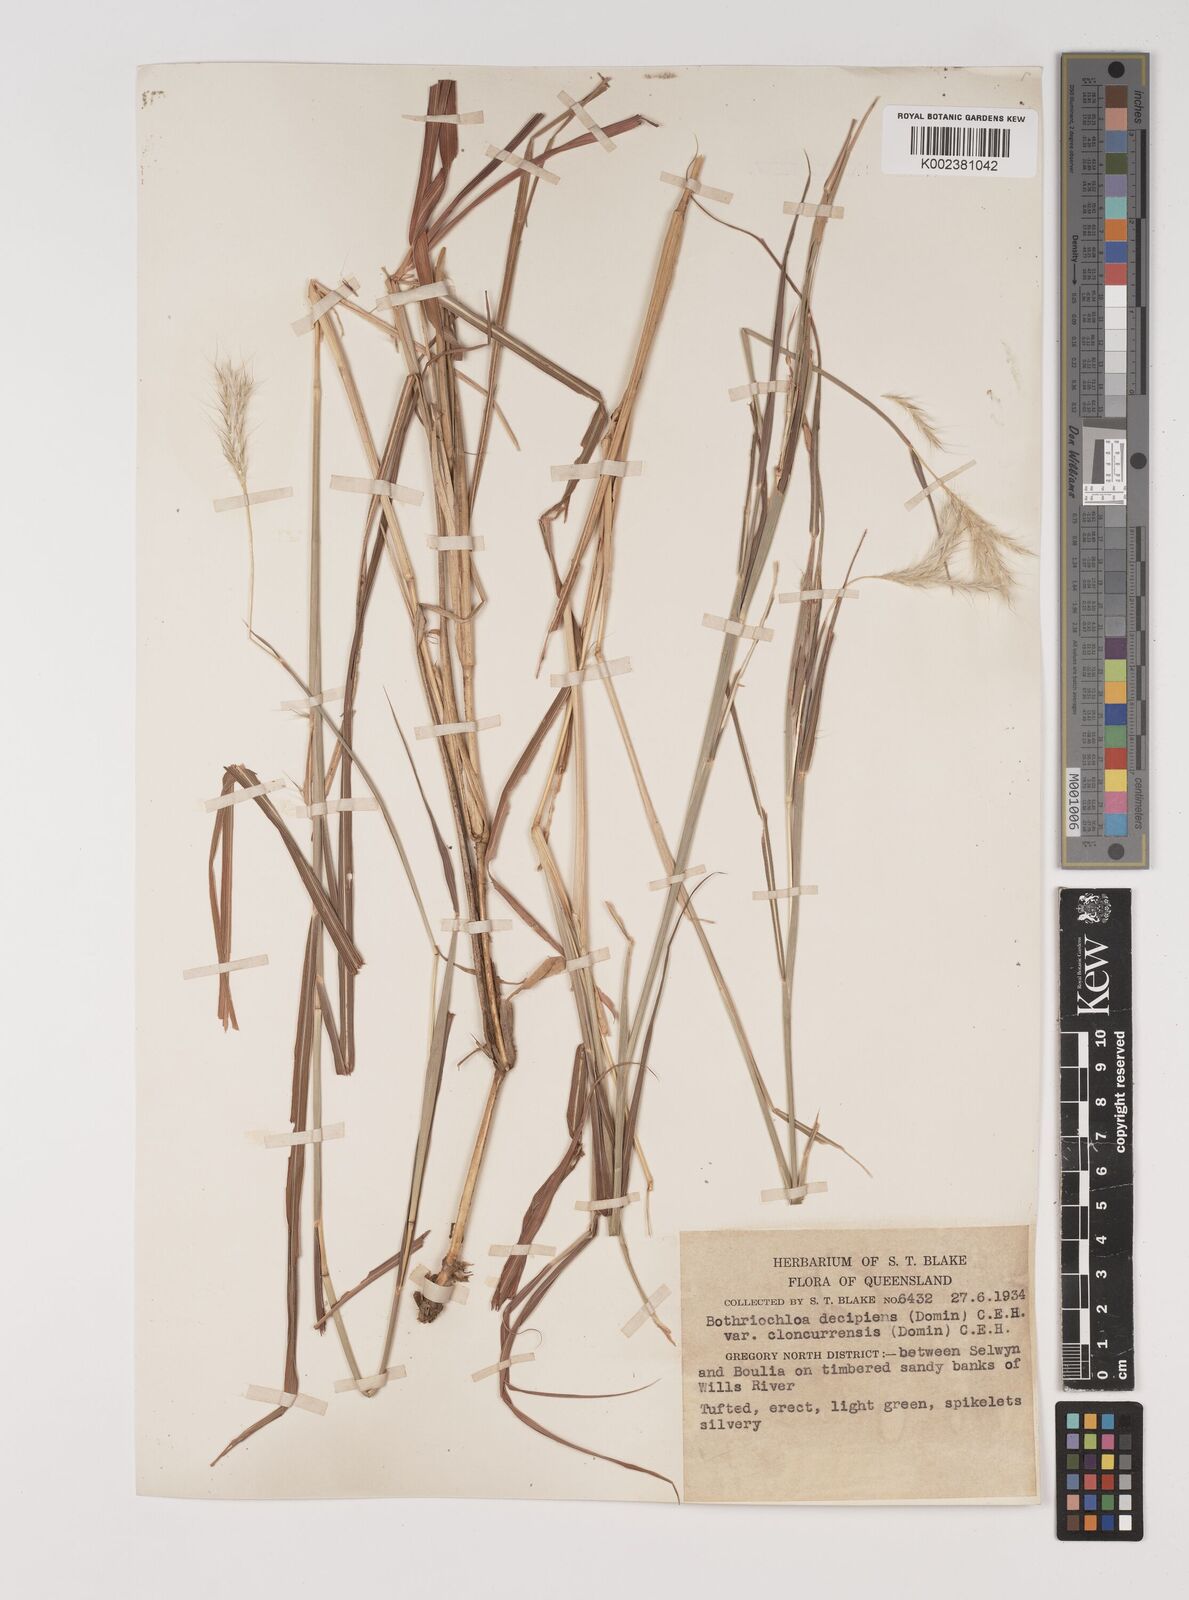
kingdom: Plantae
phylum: Tracheophyta
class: Liliopsida
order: Poales
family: Poaceae
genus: Bothriochloa
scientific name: Bothriochloa decipiens
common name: Pitted-bluegrass
